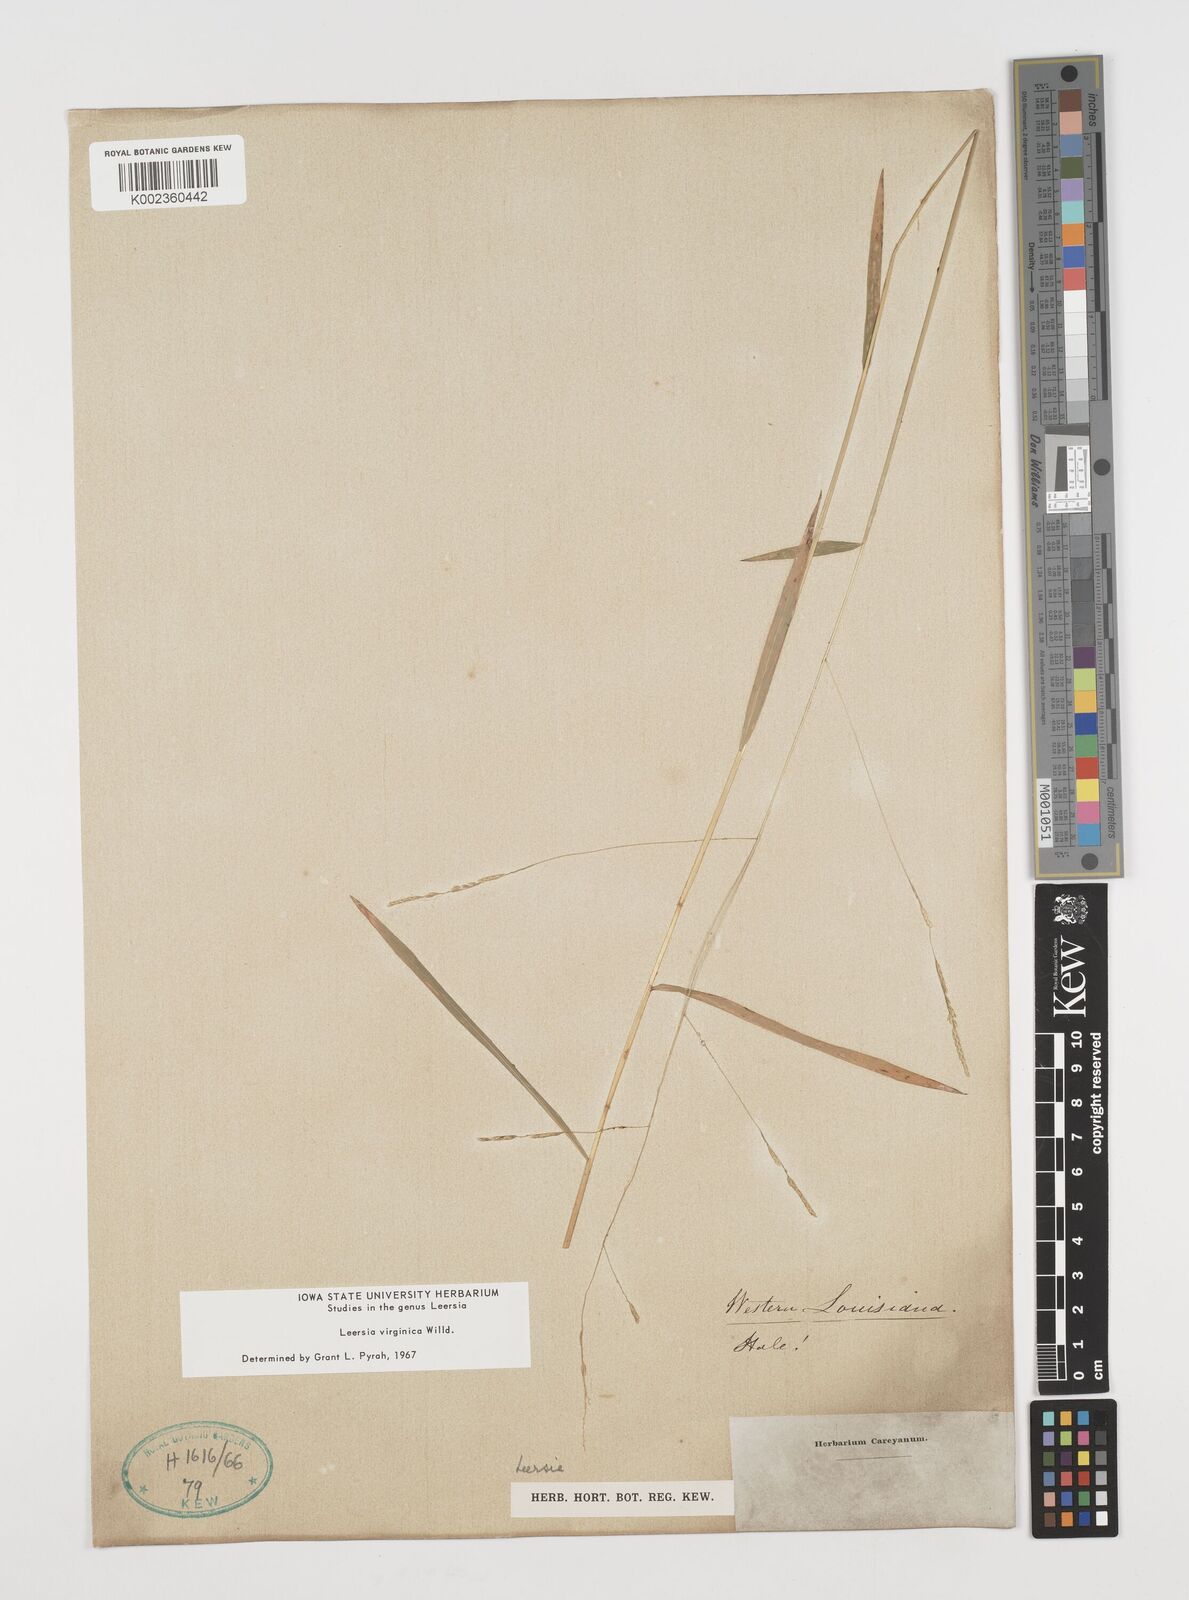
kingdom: Plantae
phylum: Tracheophyta
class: Liliopsida
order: Poales
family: Poaceae
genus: Leersia
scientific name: Leersia virginica
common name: White cutgrass
